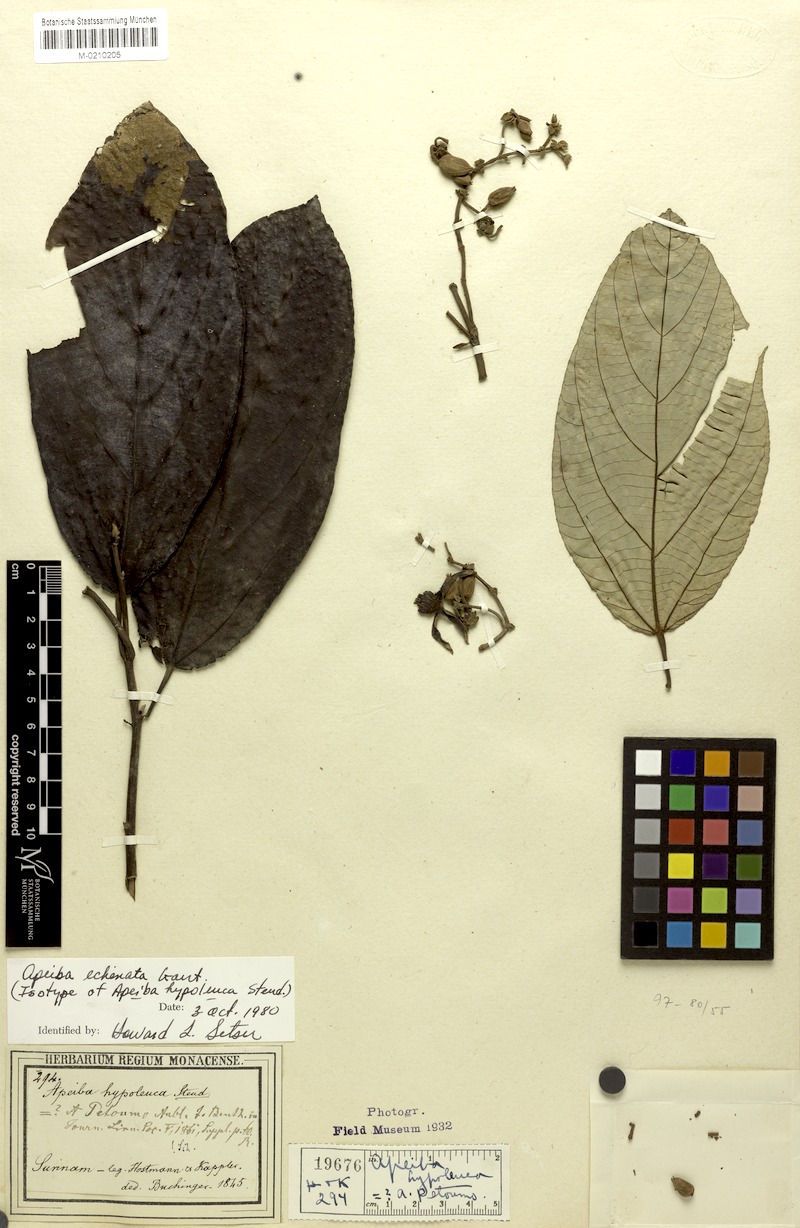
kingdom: Plantae
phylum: Tracheophyta
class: Magnoliopsida
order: Malvales
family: Malvaceae
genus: Apeiba
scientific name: Apeiba petoumo
